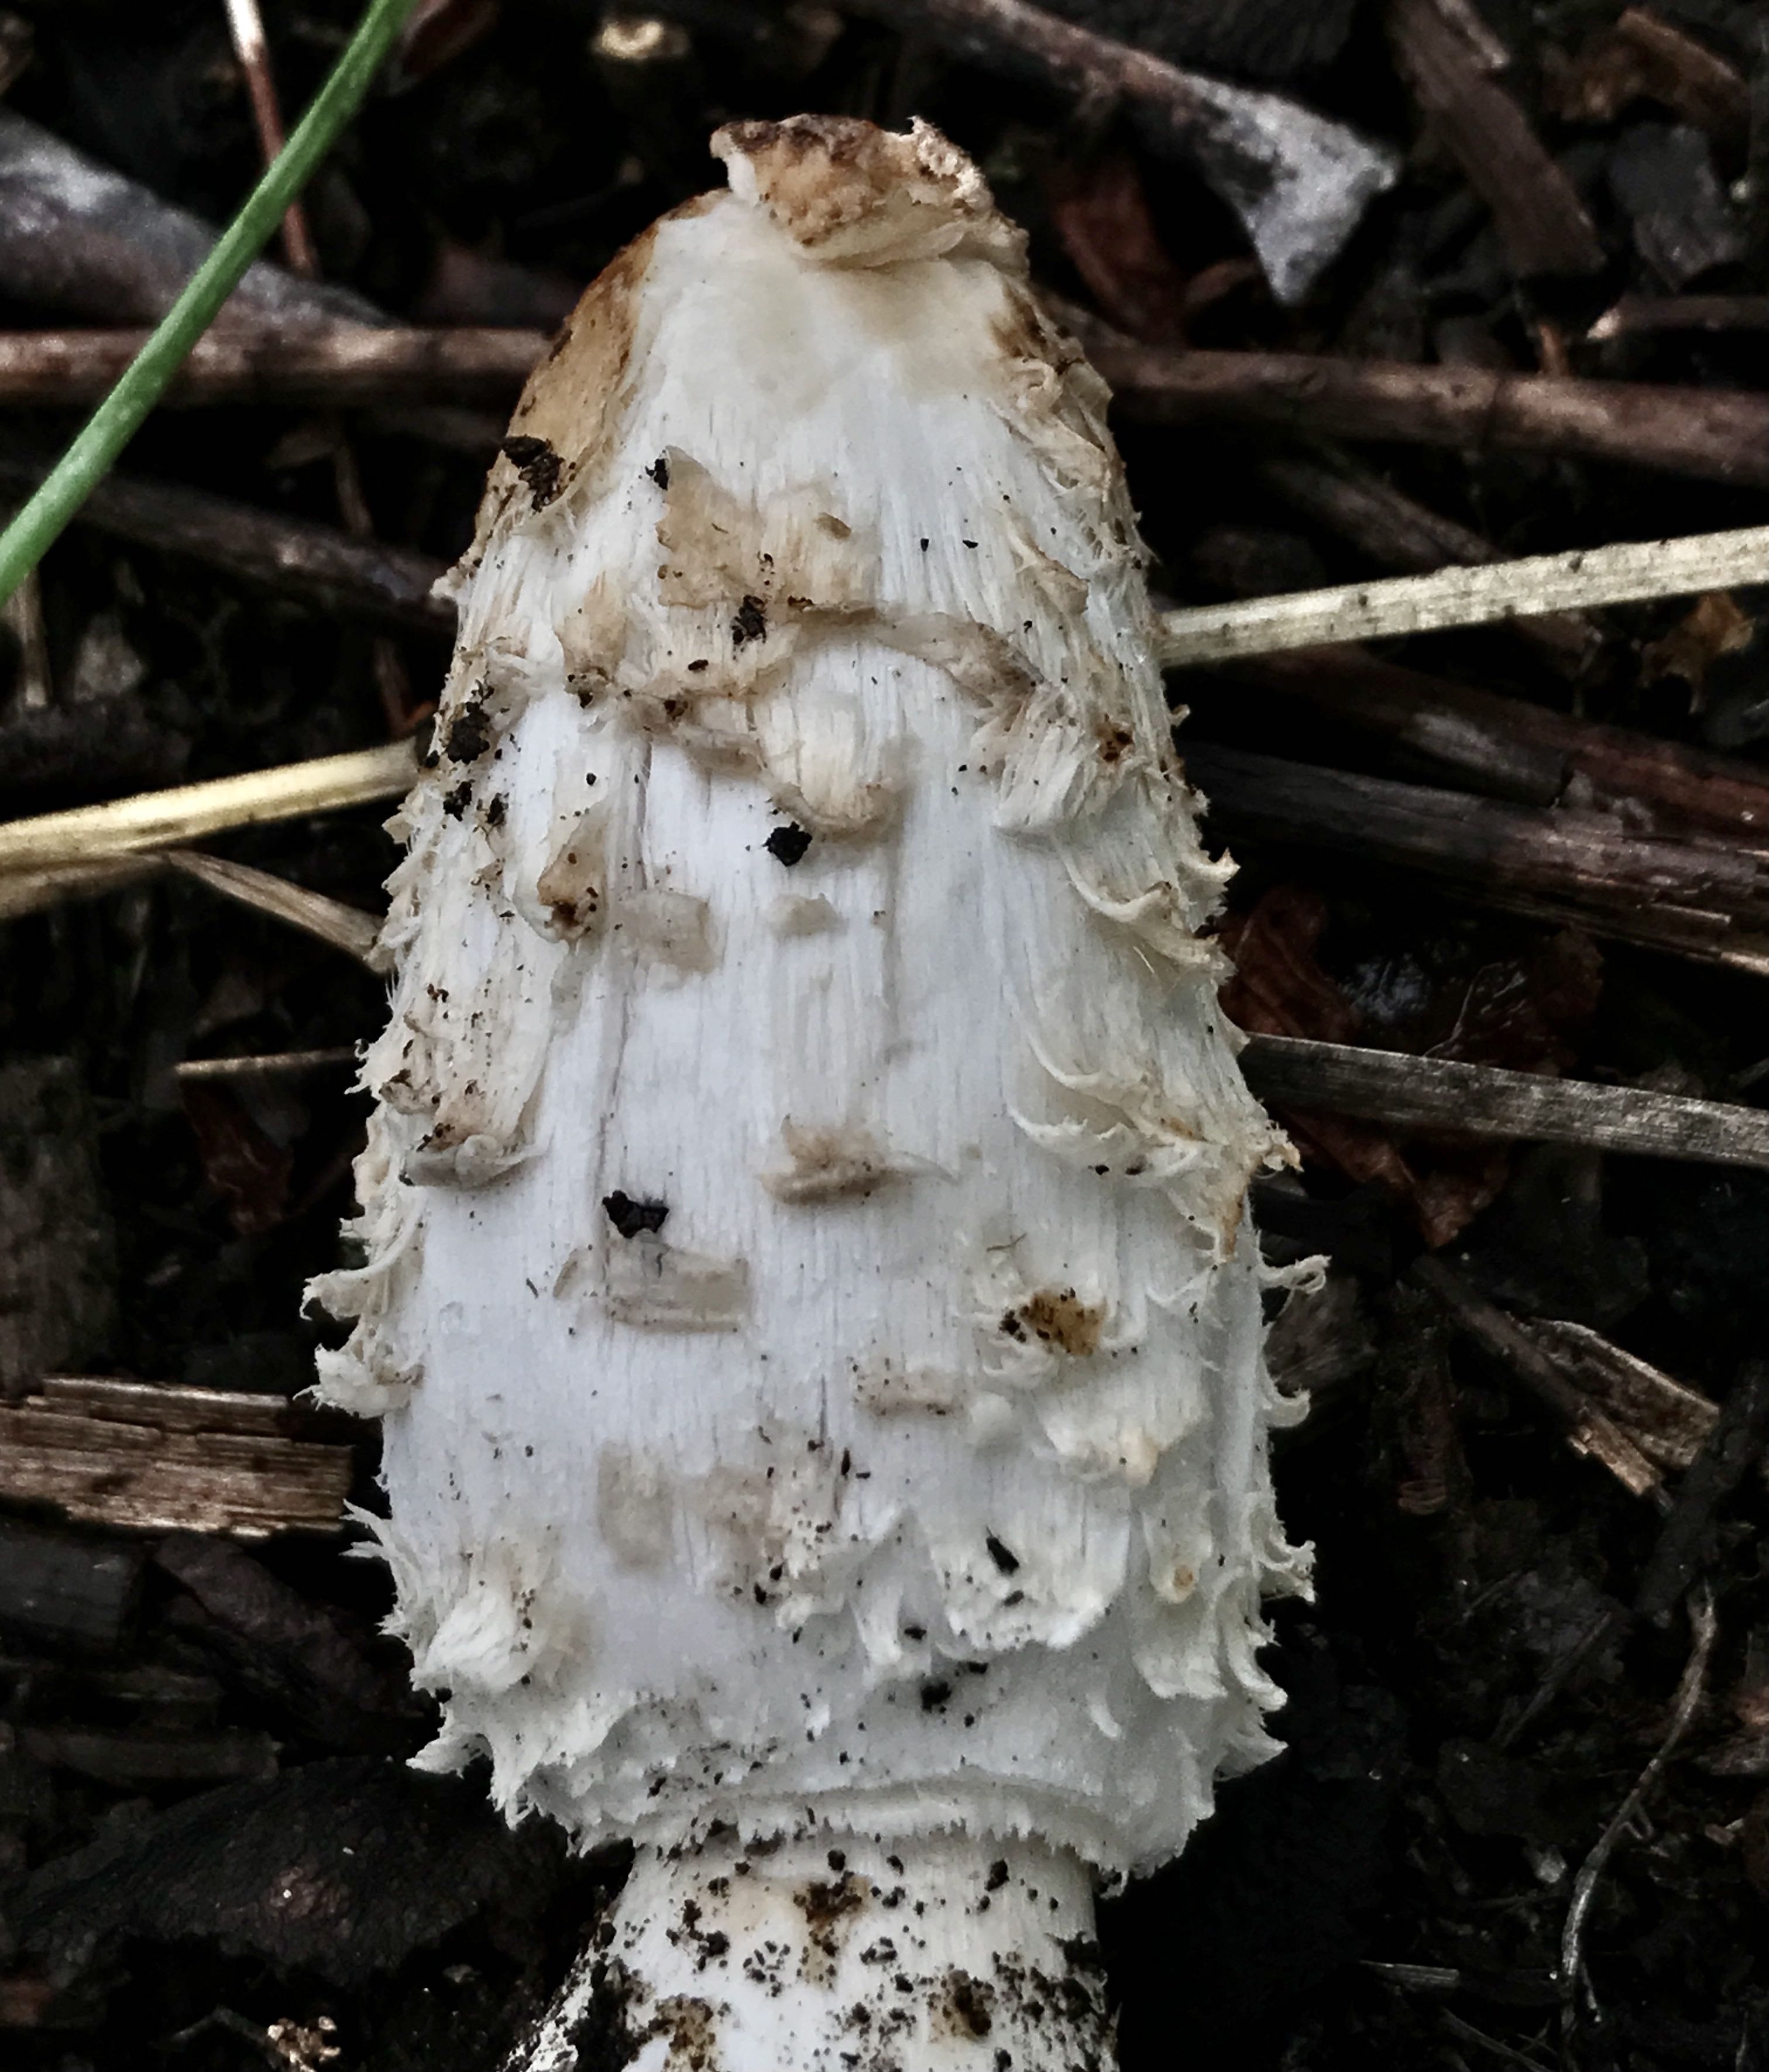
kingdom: Fungi
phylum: Basidiomycota
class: Agaricomycetes
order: Agaricales
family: Agaricaceae
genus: Coprinus
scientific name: Coprinus comatus
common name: stor parykhat
